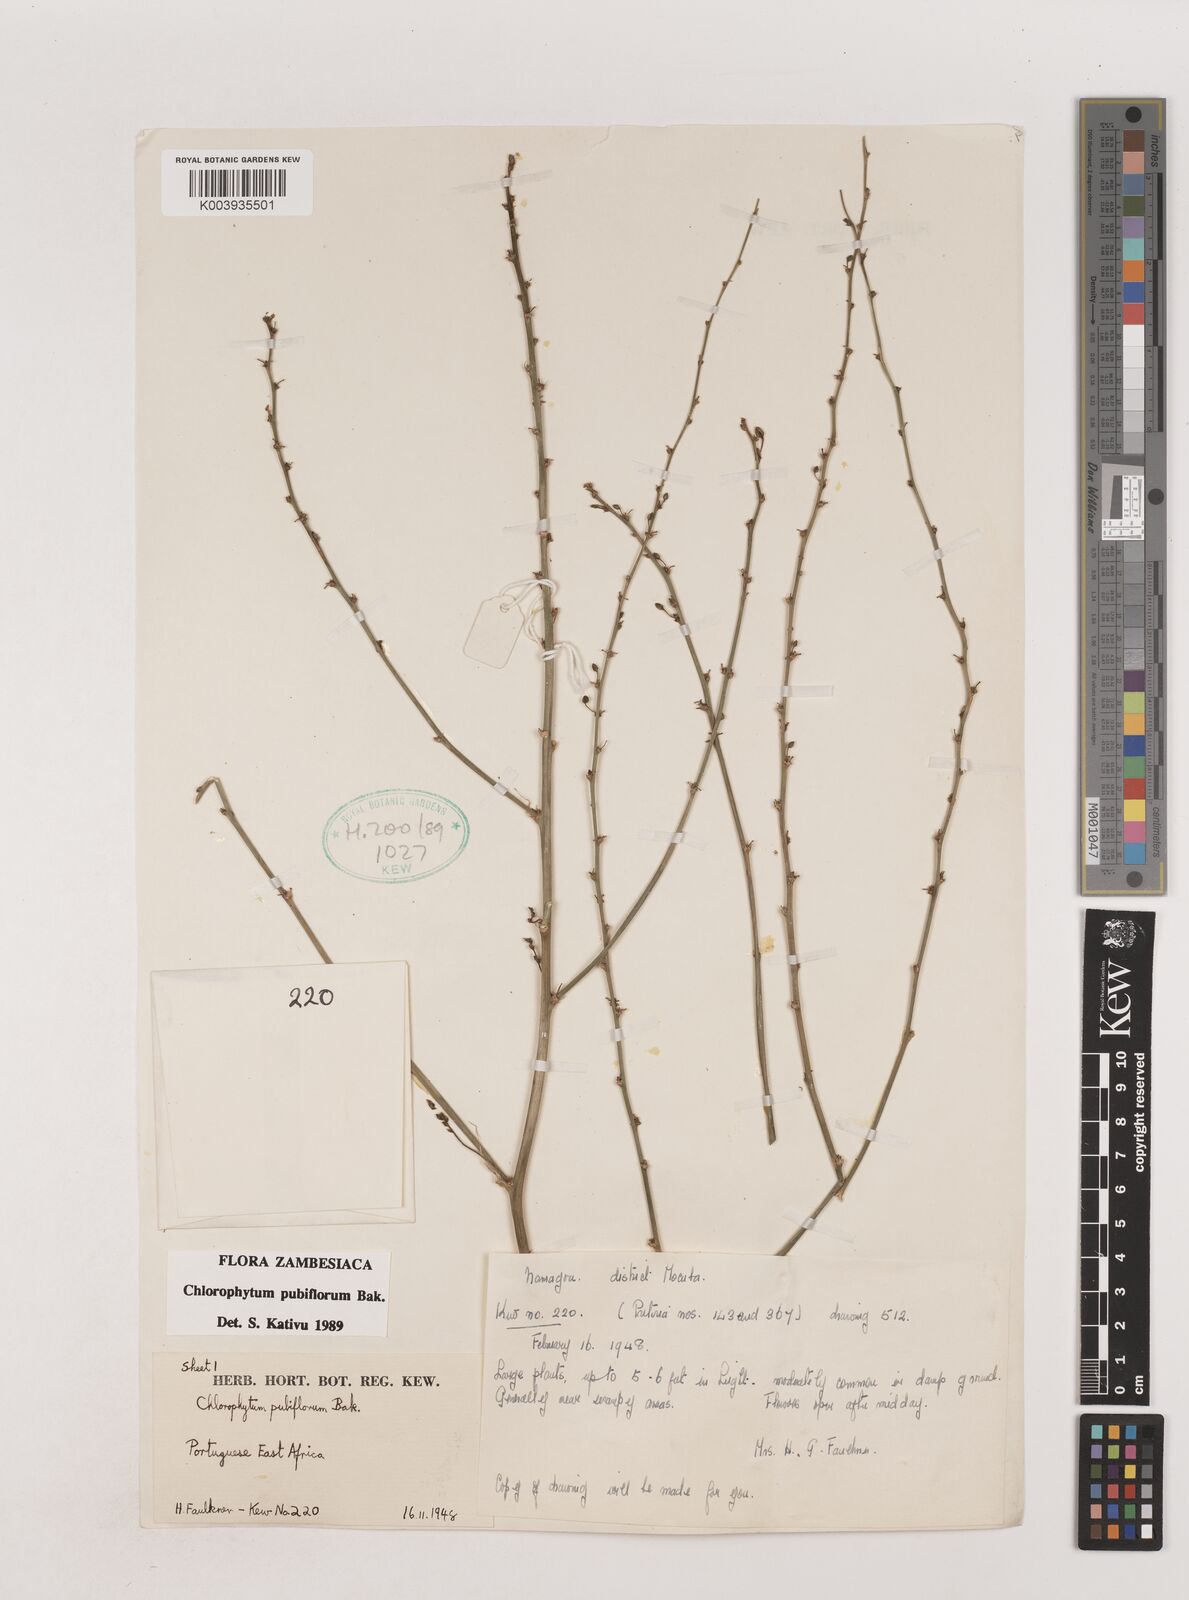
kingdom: Plantae
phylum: Tracheophyta
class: Liliopsida
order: Asparagales
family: Asparagaceae
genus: Chlorophytum
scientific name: Chlorophytum pubiflorum
